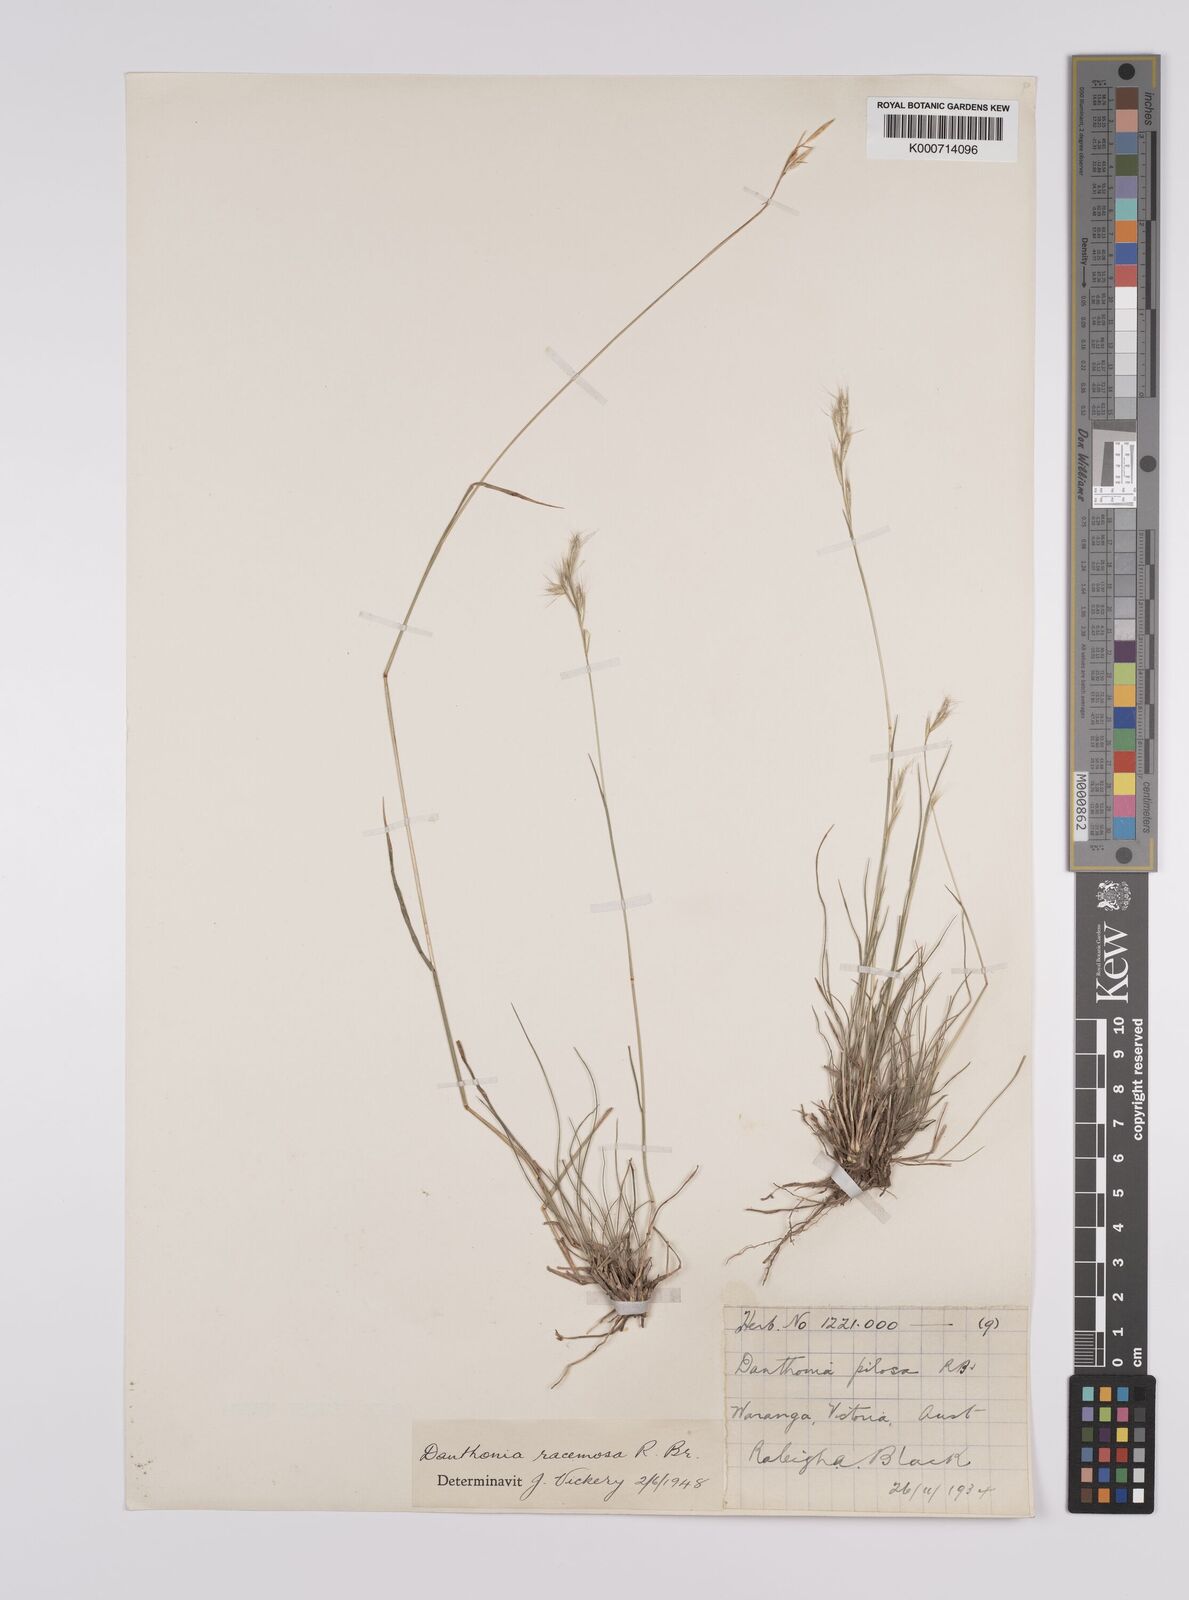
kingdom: Plantae
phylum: Tracheophyta
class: Liliopsida
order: Poales
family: Poaceae
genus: Rytidosperma
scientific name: Rytidosperma racemosum
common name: Wallaby-grass
